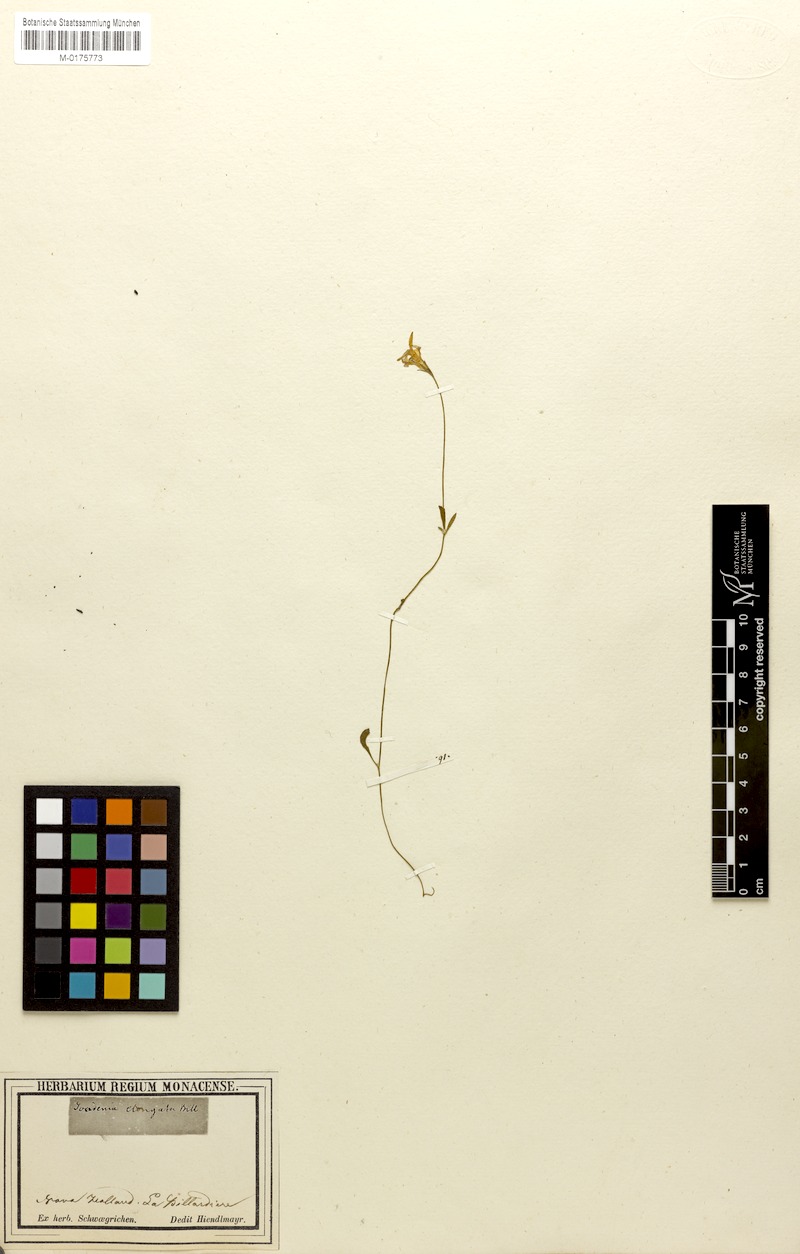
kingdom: Plantae
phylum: Tracheophyta
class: Magnoliopsida
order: Asterales
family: Goodeniaceae
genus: Goodenia
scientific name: Goodenia elongata
